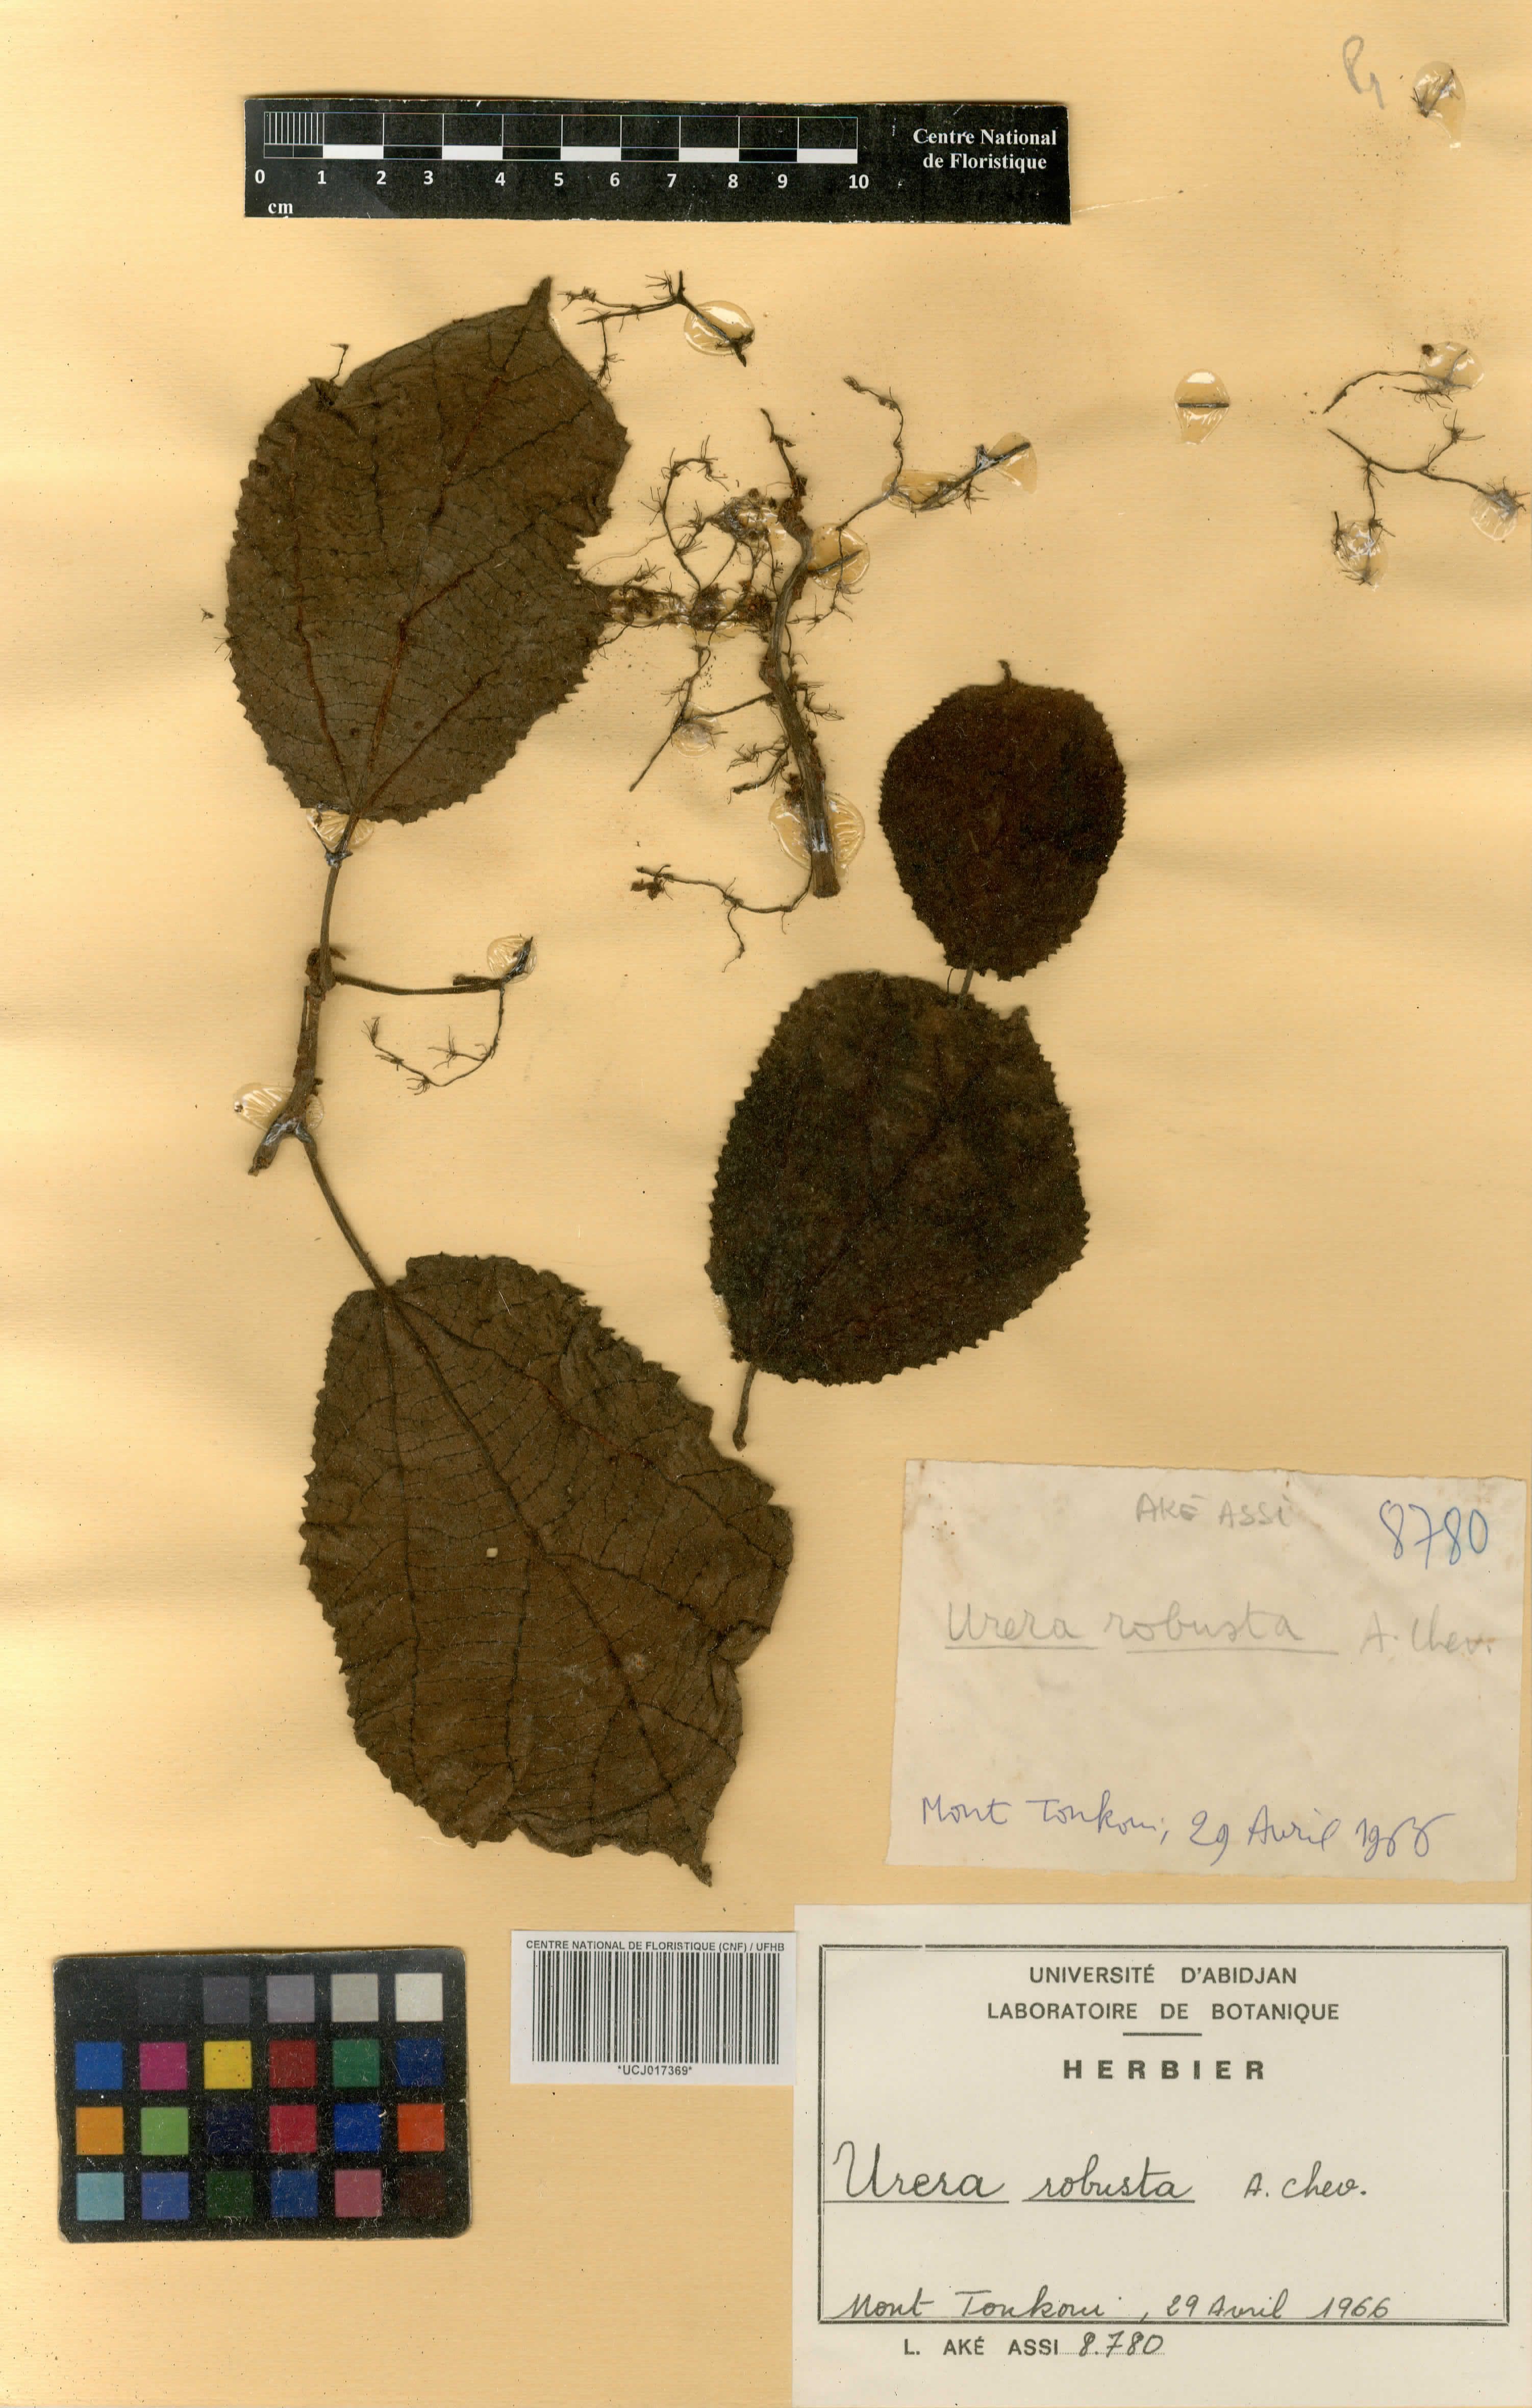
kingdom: Plantae
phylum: Tracheophyta
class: Magnoliopsida
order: Rosales
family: Urticaceae
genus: Scepocarpus
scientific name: Scepocarpus robustus
